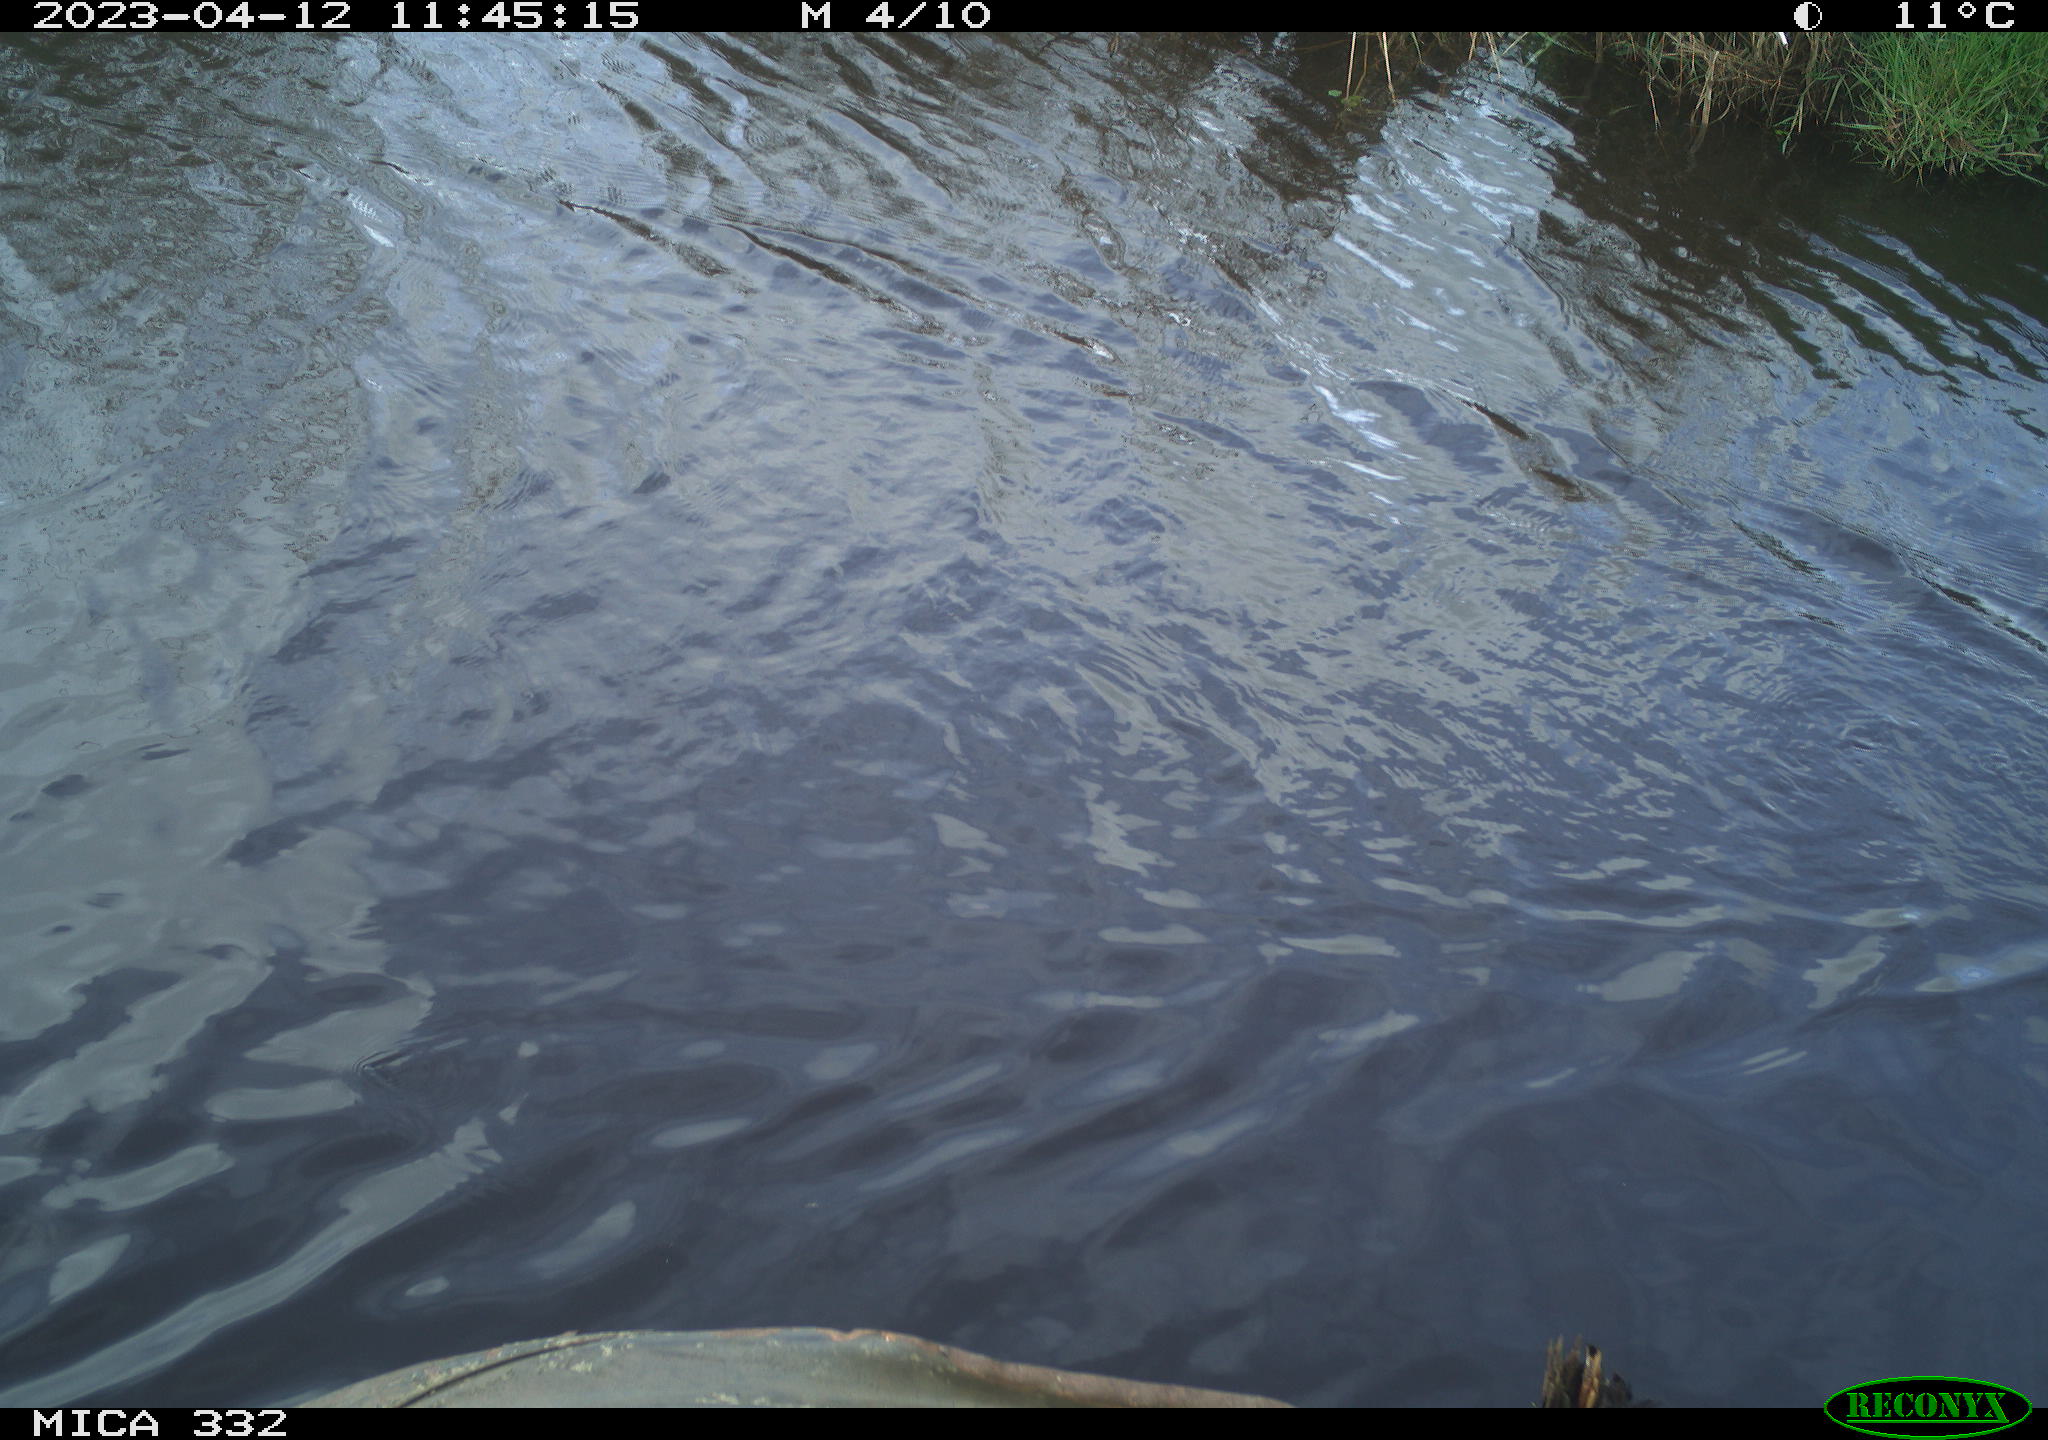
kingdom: Animalia
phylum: Chordata
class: Aves
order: Anseriformes
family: Anatidae
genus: Anas
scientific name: Anas
